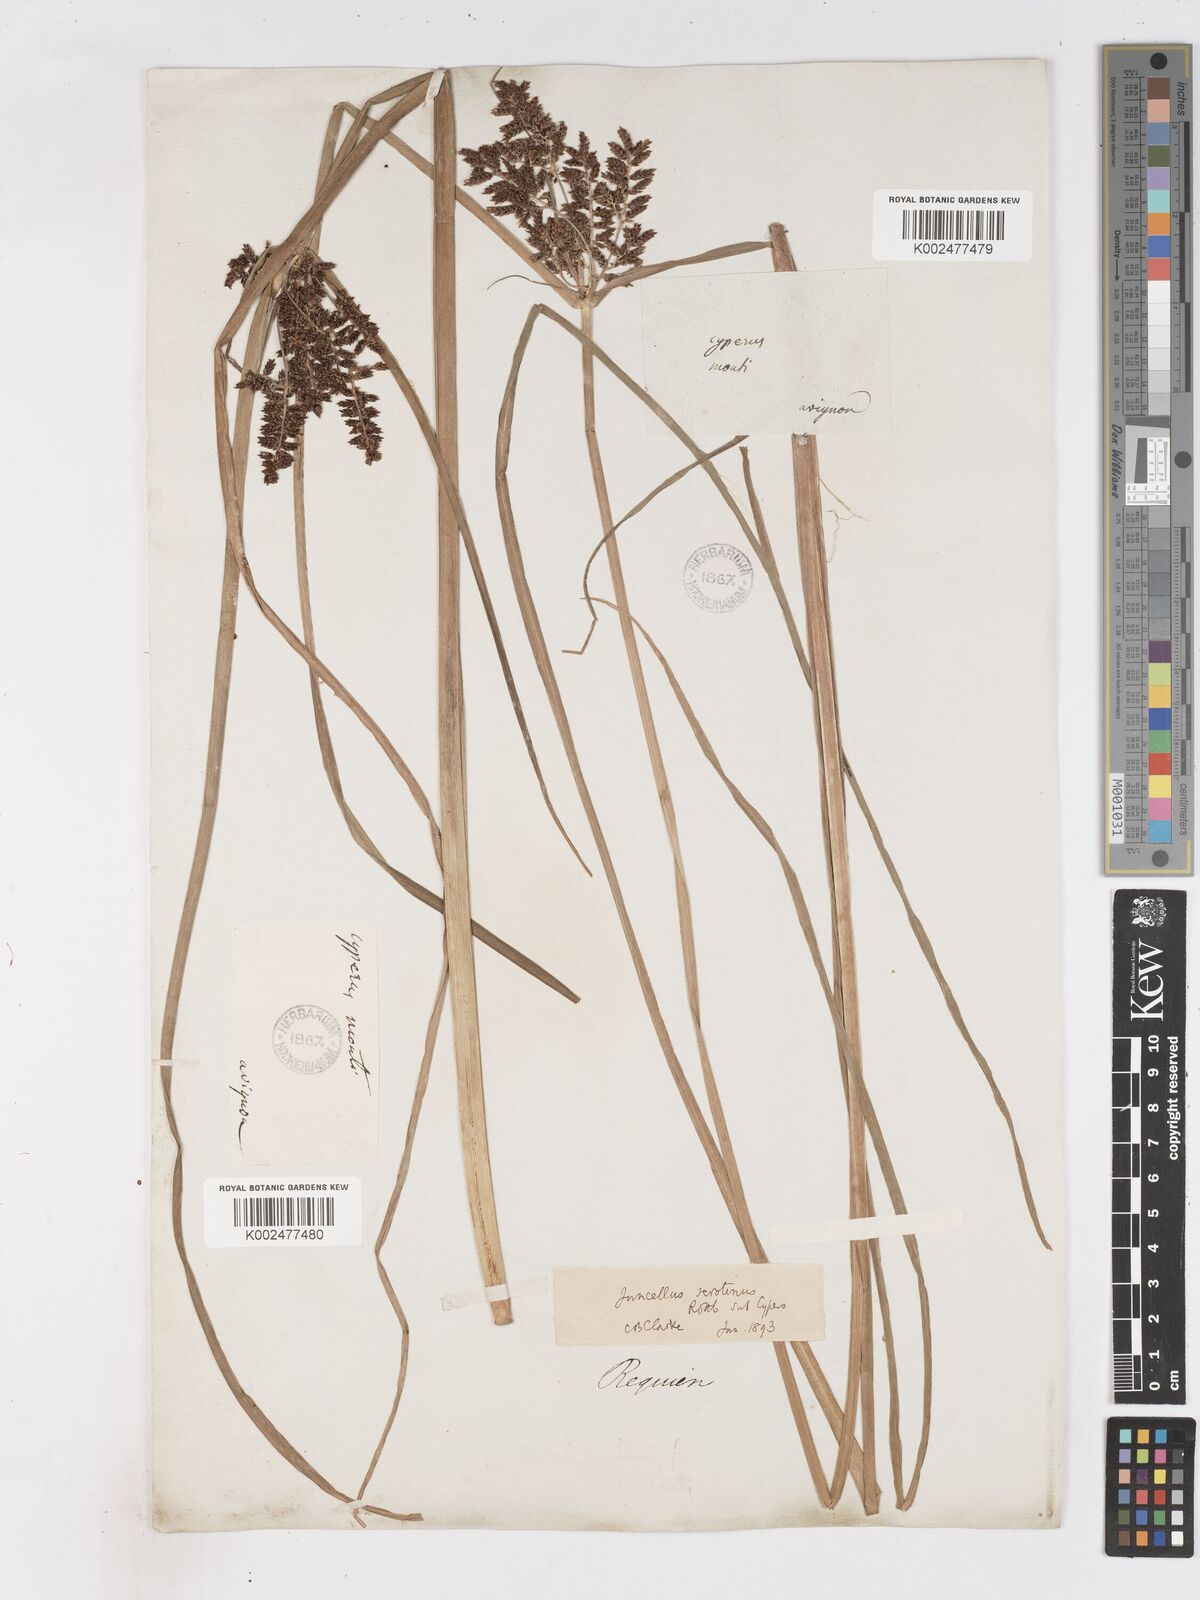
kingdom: Plantae
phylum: Tracheophyta
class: Liliopsida
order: Poales
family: Cyperaceae
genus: Cyperus
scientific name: Cyperus serotinus
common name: Tidalmarsh flatsedge
